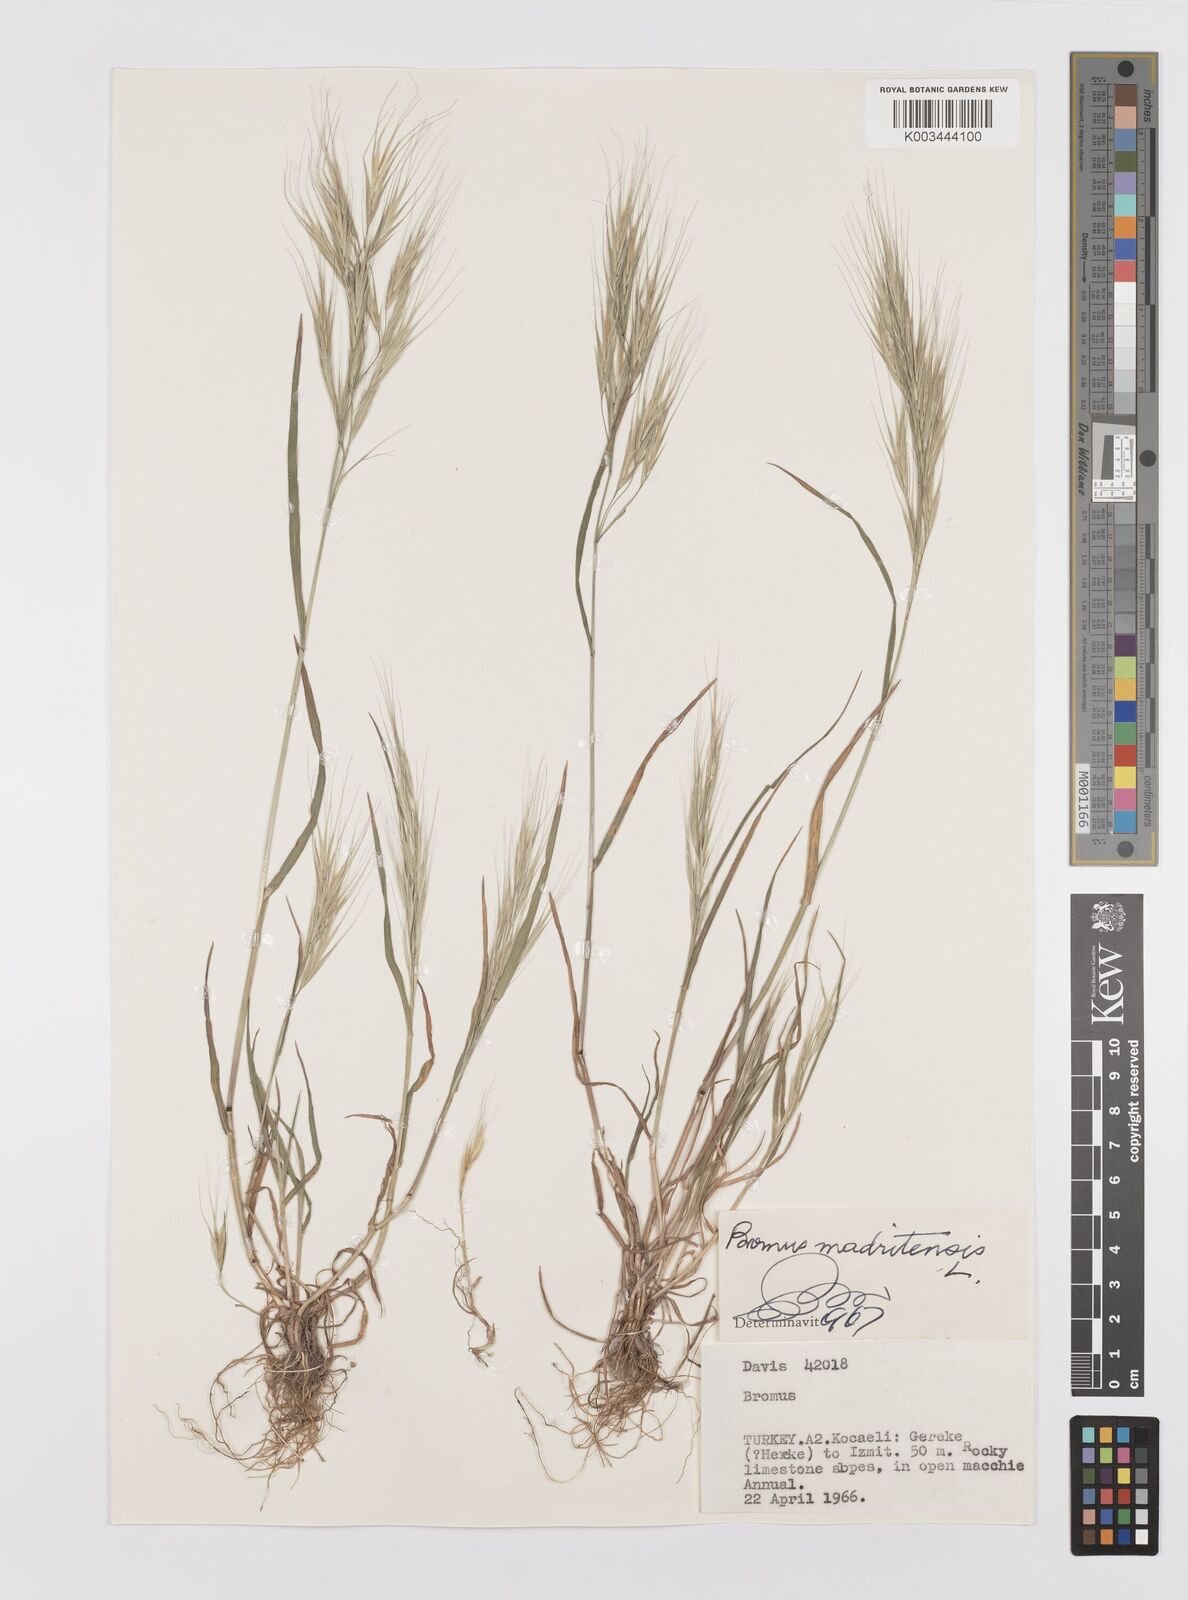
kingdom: Plantae
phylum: Tracheophyta
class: Liliopsida
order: Poales
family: Poaceae
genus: Bromus
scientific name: Bromus madritensis
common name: Compact brome
